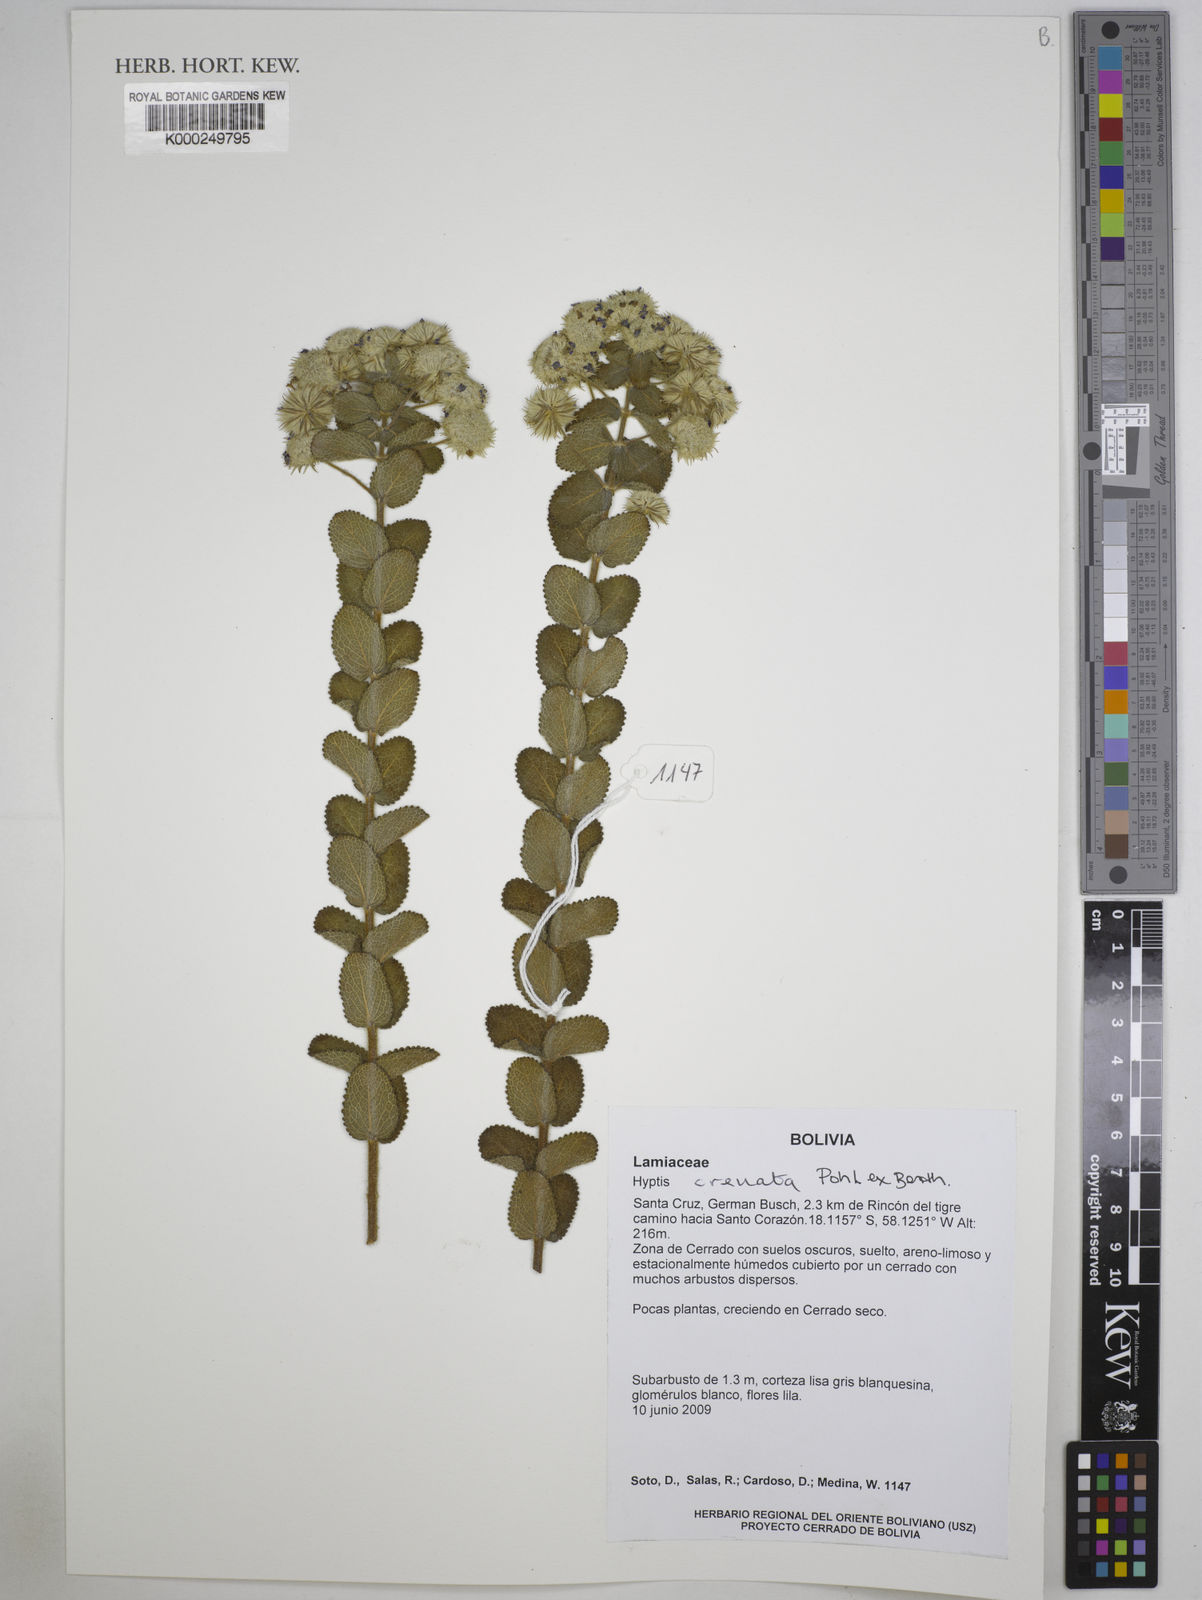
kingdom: Plantae
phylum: Tracheophyta
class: Magnoliopsida
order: Lamiales
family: Lamiaceae
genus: Hyptis
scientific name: Hyptis crenata
